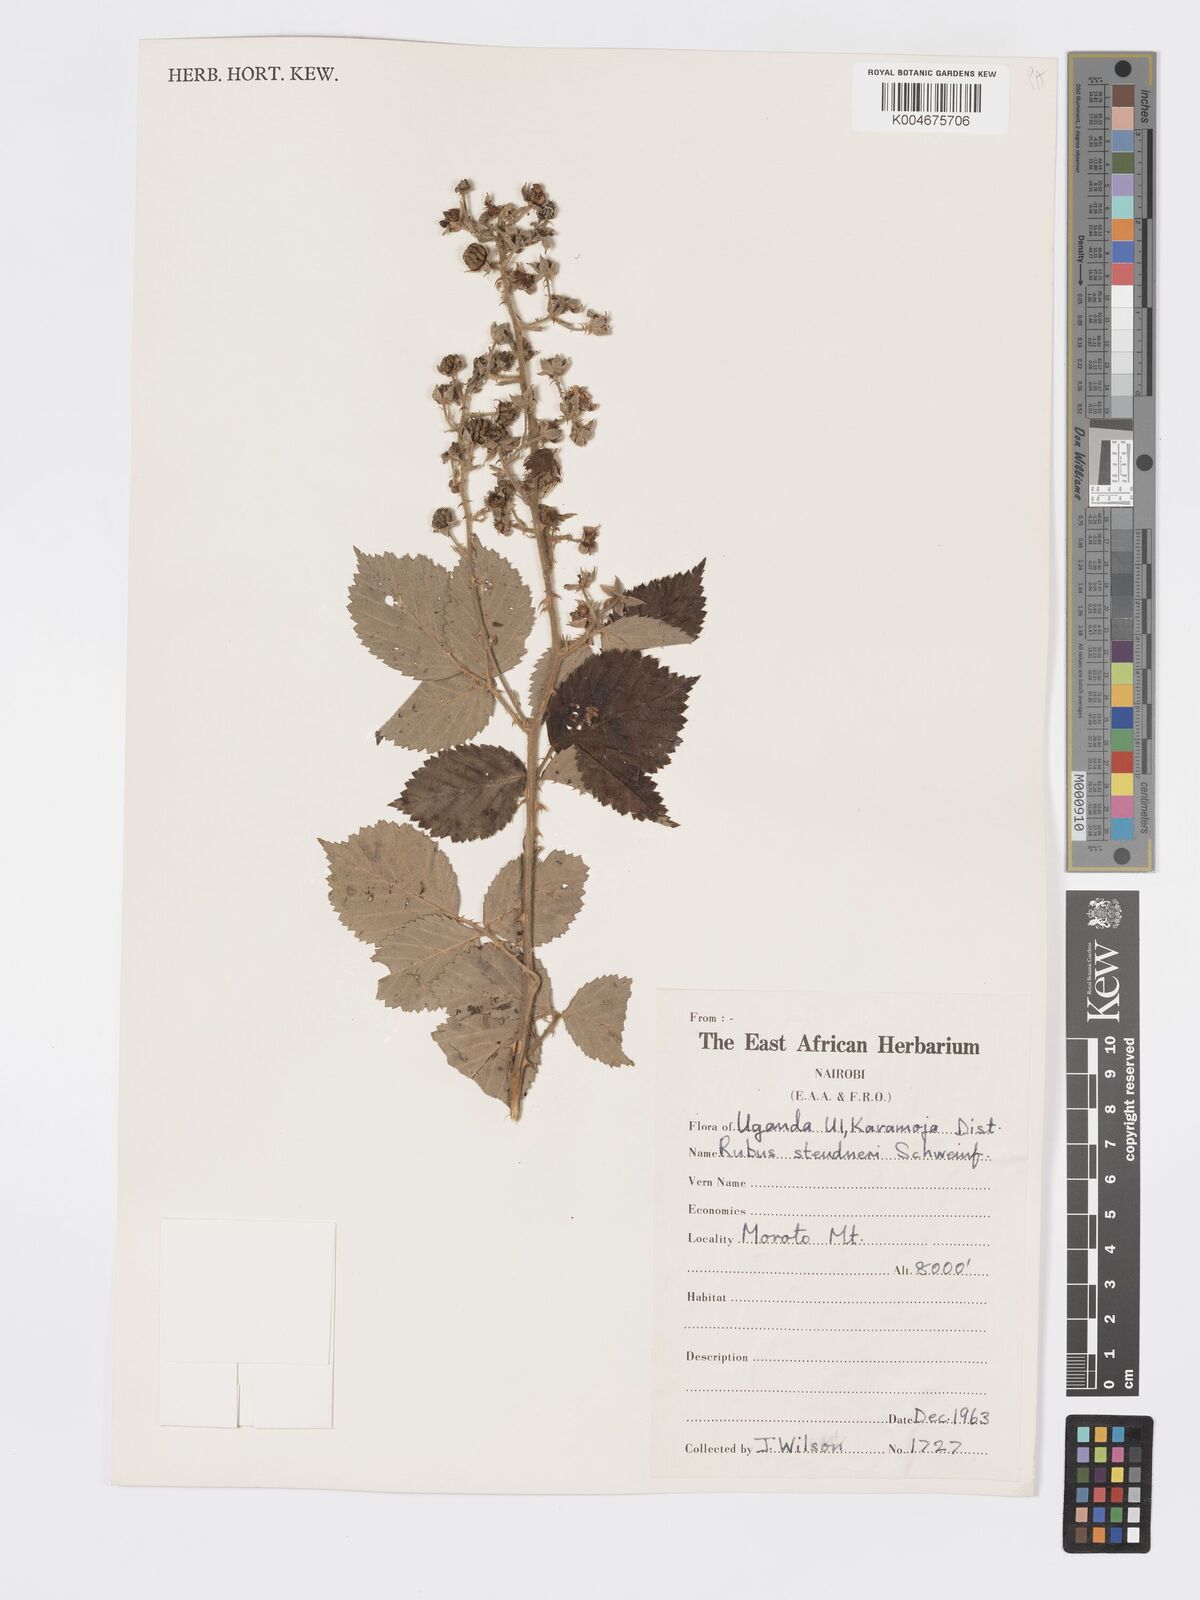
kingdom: Plantae
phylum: Tracheophyta
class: Magnoliopsida
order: Rosales
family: Rosaceae
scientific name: Rosaceae
